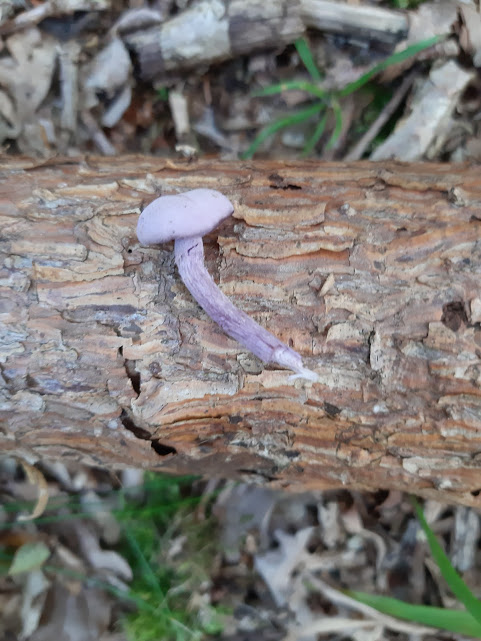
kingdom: Fungi
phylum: Basidiomycota
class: Agaricomycetes
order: Agaricales
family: Hydnangiaceae
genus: Laccaria
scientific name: Laccaria amethystina
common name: violet ametysthat
